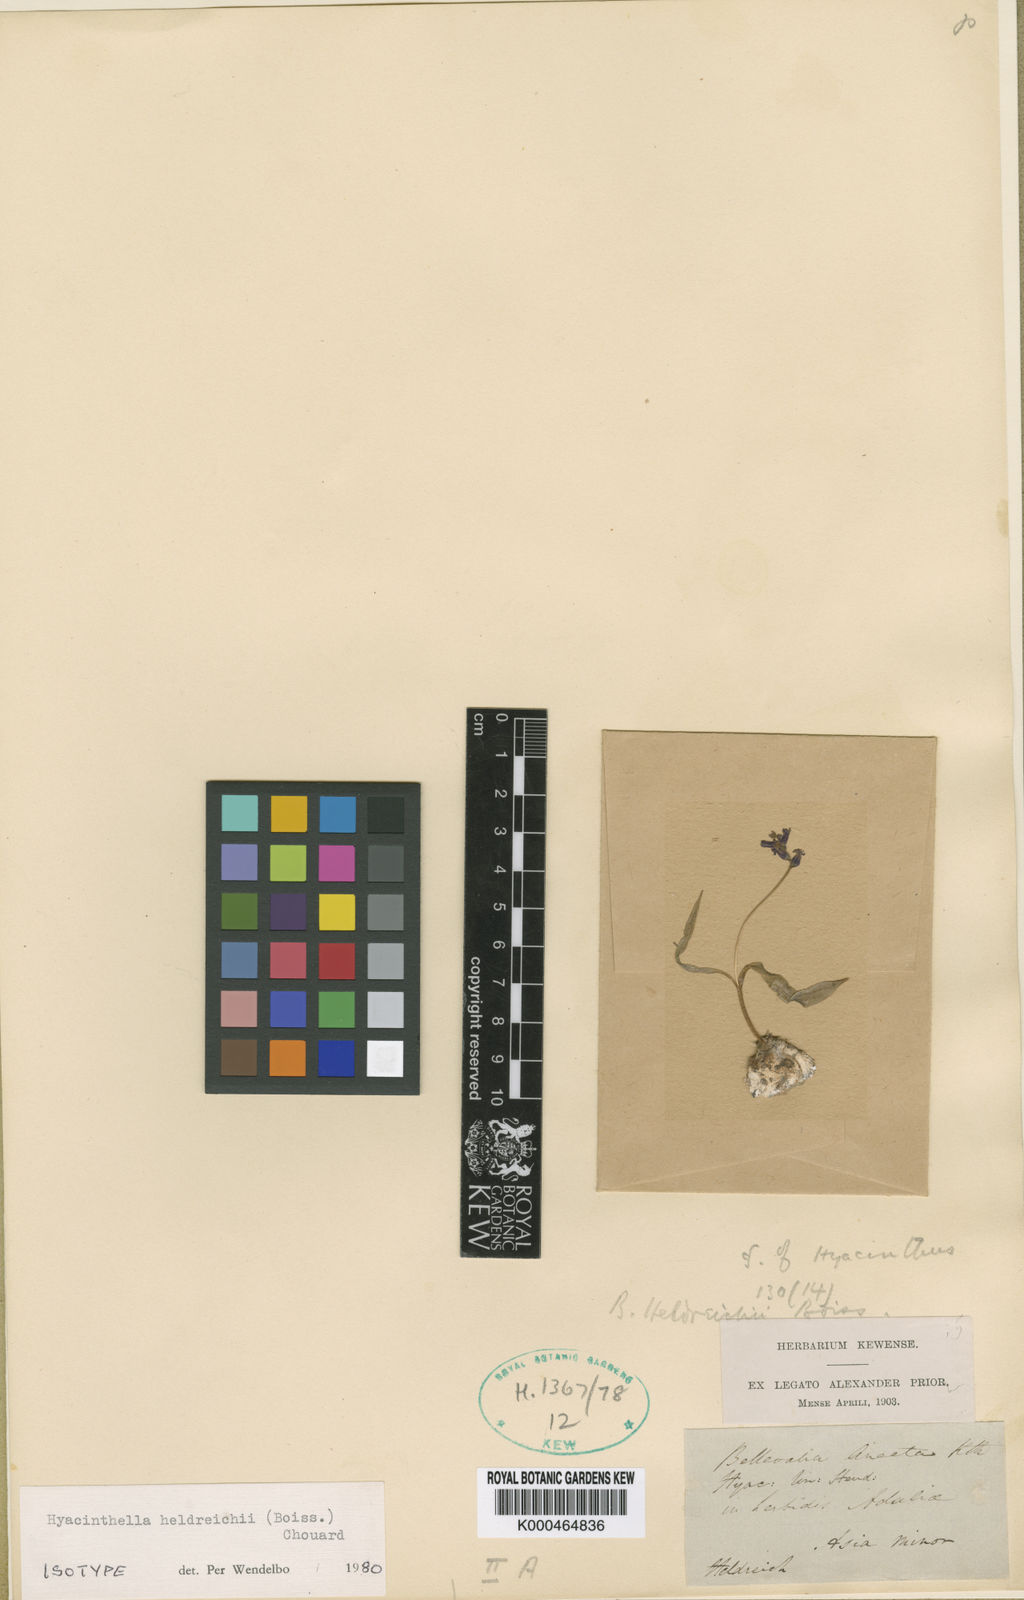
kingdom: Plantae
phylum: Tracheophyta
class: Liliopsida
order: Asparagales
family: Asparagaceae
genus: Hyacinthus
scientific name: Hyacinthus
